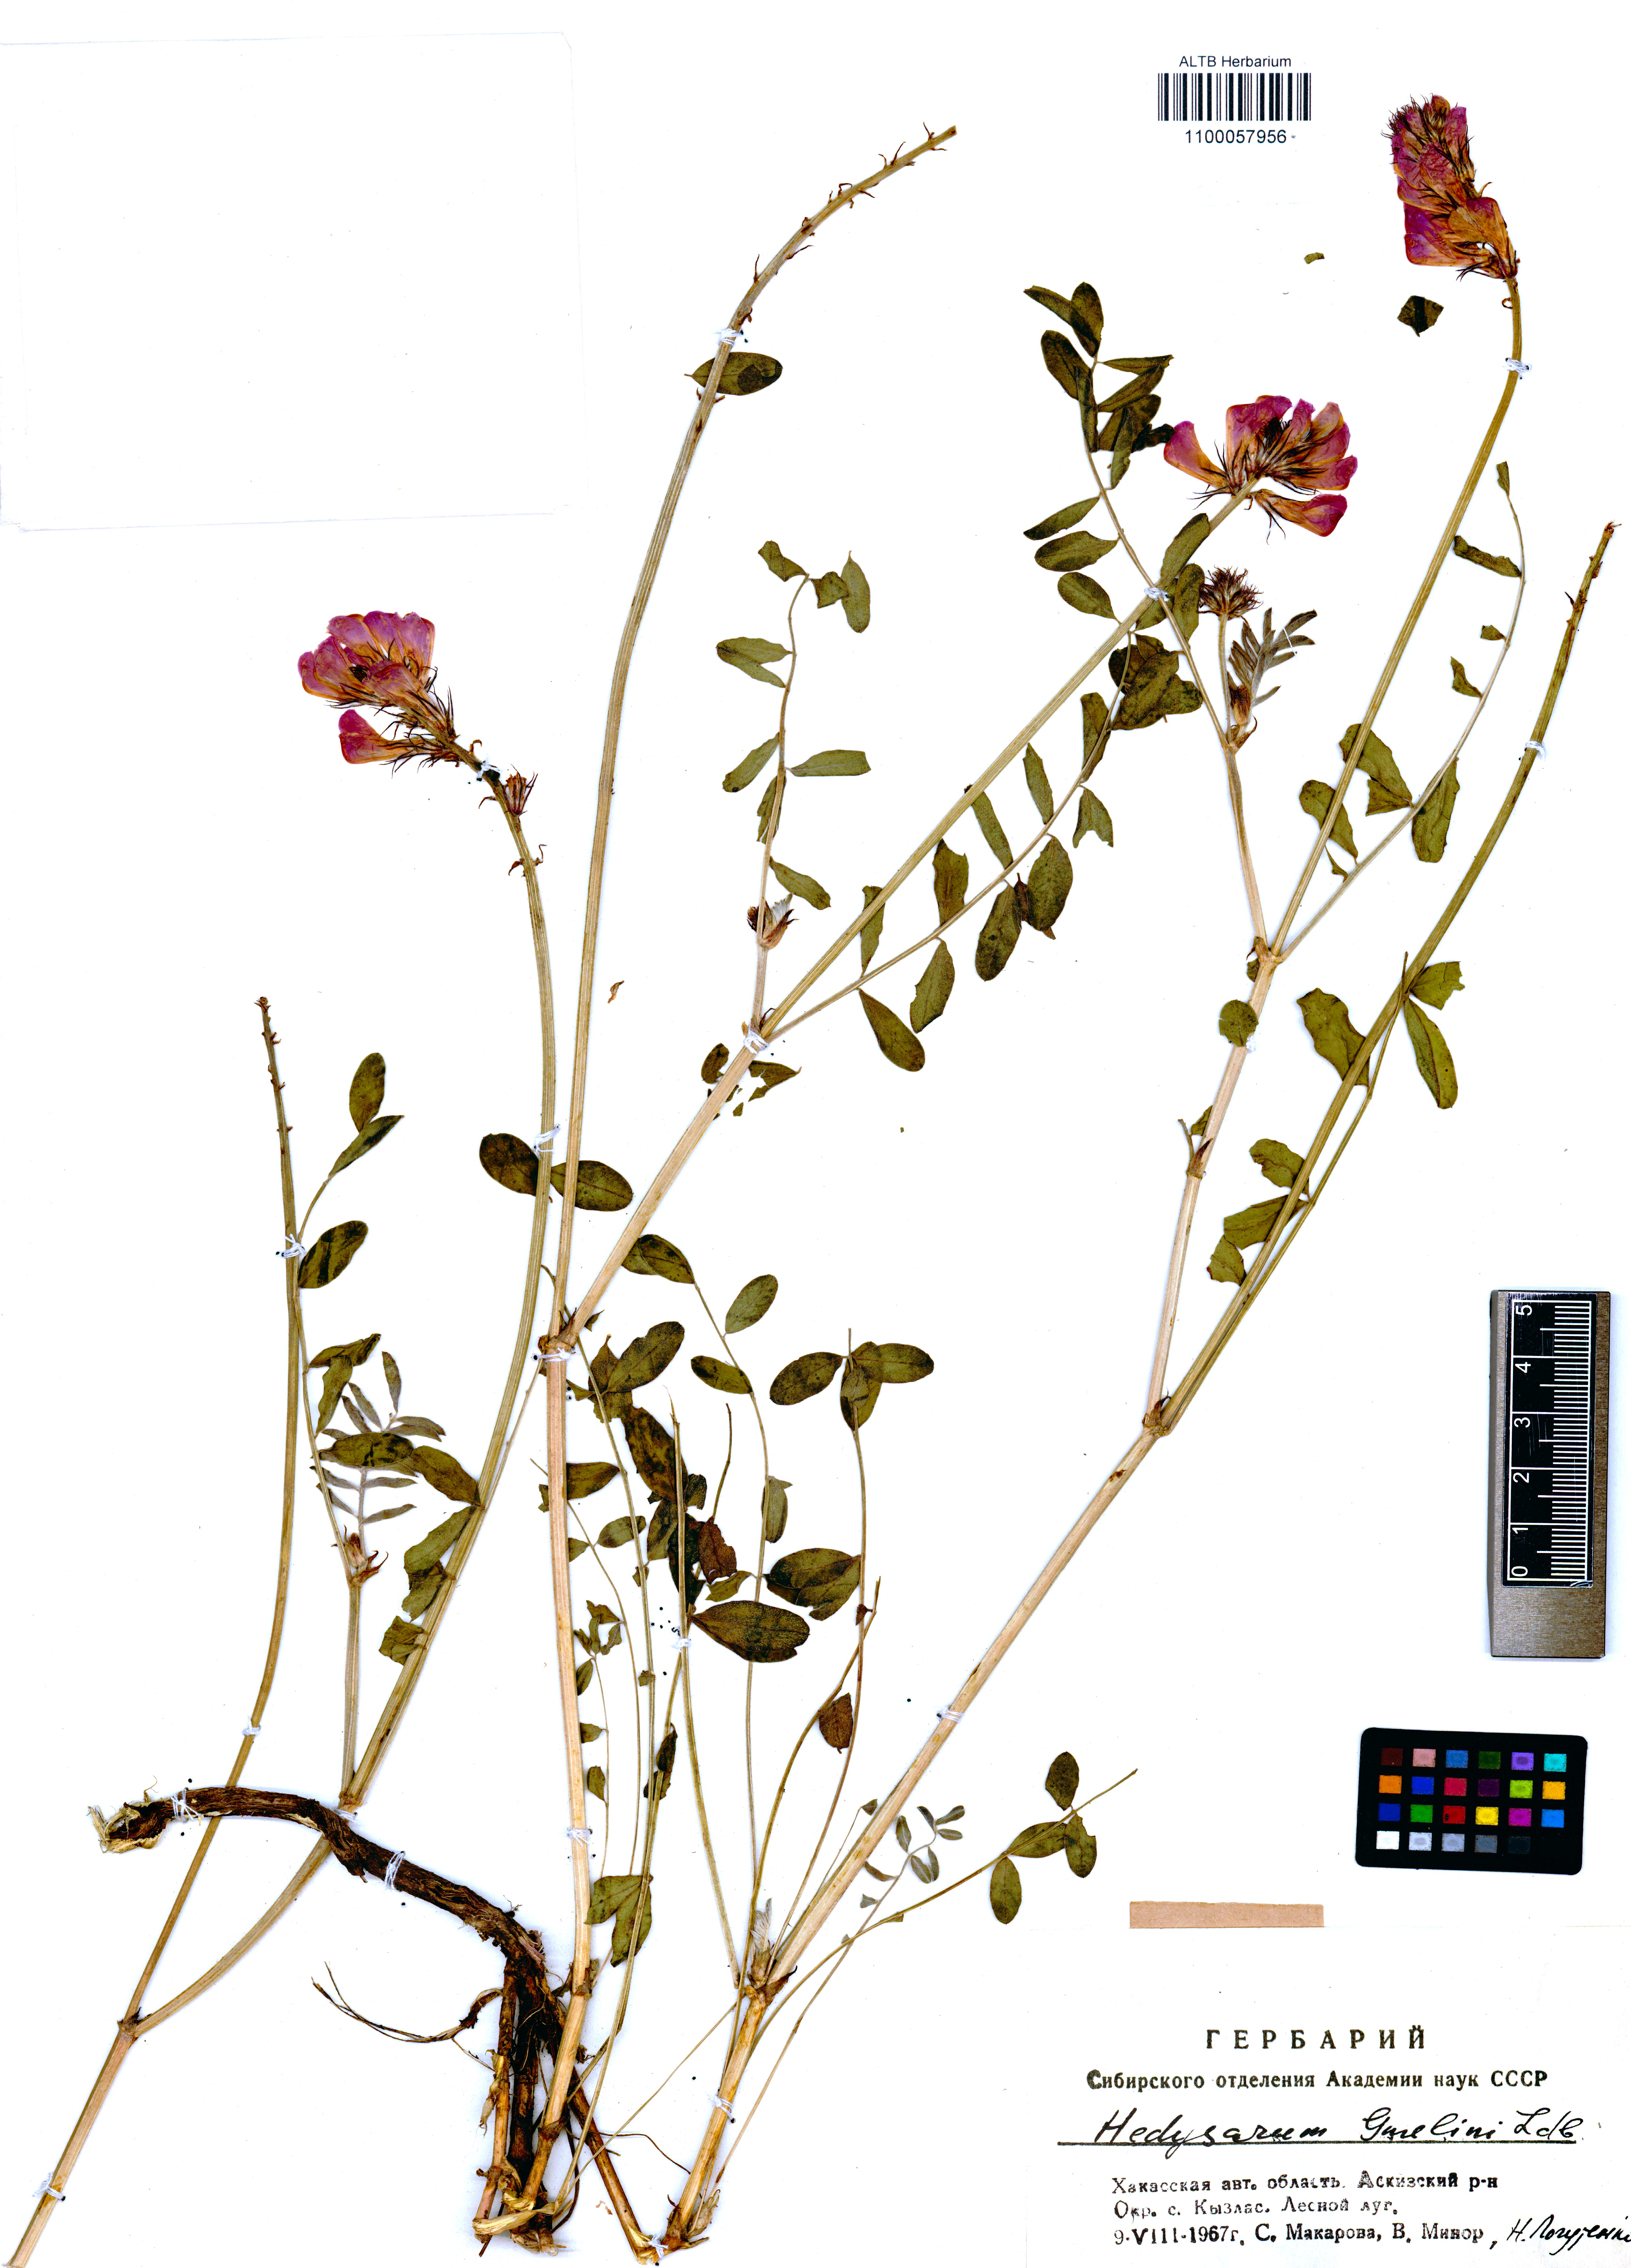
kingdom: Plantae
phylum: Tracheophyta
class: Magnoliopsida
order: Fabales
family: Fabaceae
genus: Hedysarum
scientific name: Hedysarum gmelinii
